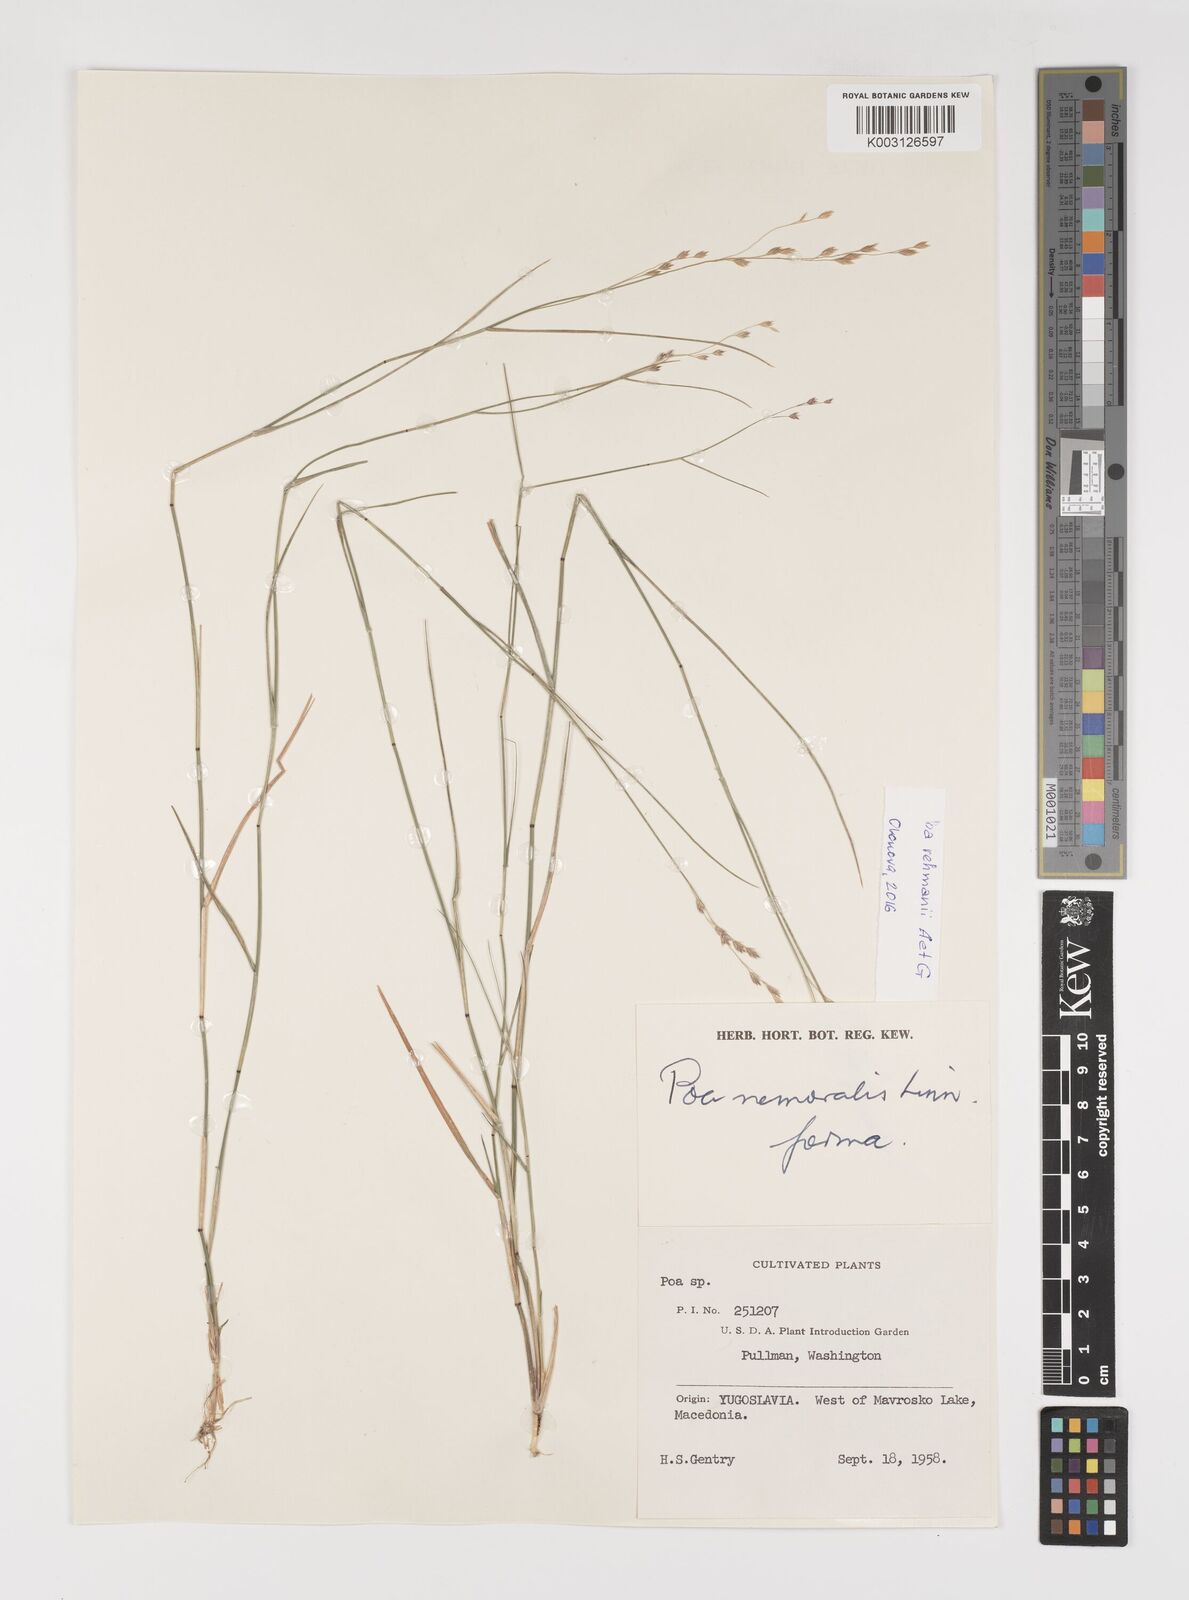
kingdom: Plantae
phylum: Tracheophyta
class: Liliopsida
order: Poales
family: Poaceae
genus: Poa
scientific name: Poa nemoralis
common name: Wood bluegrass
